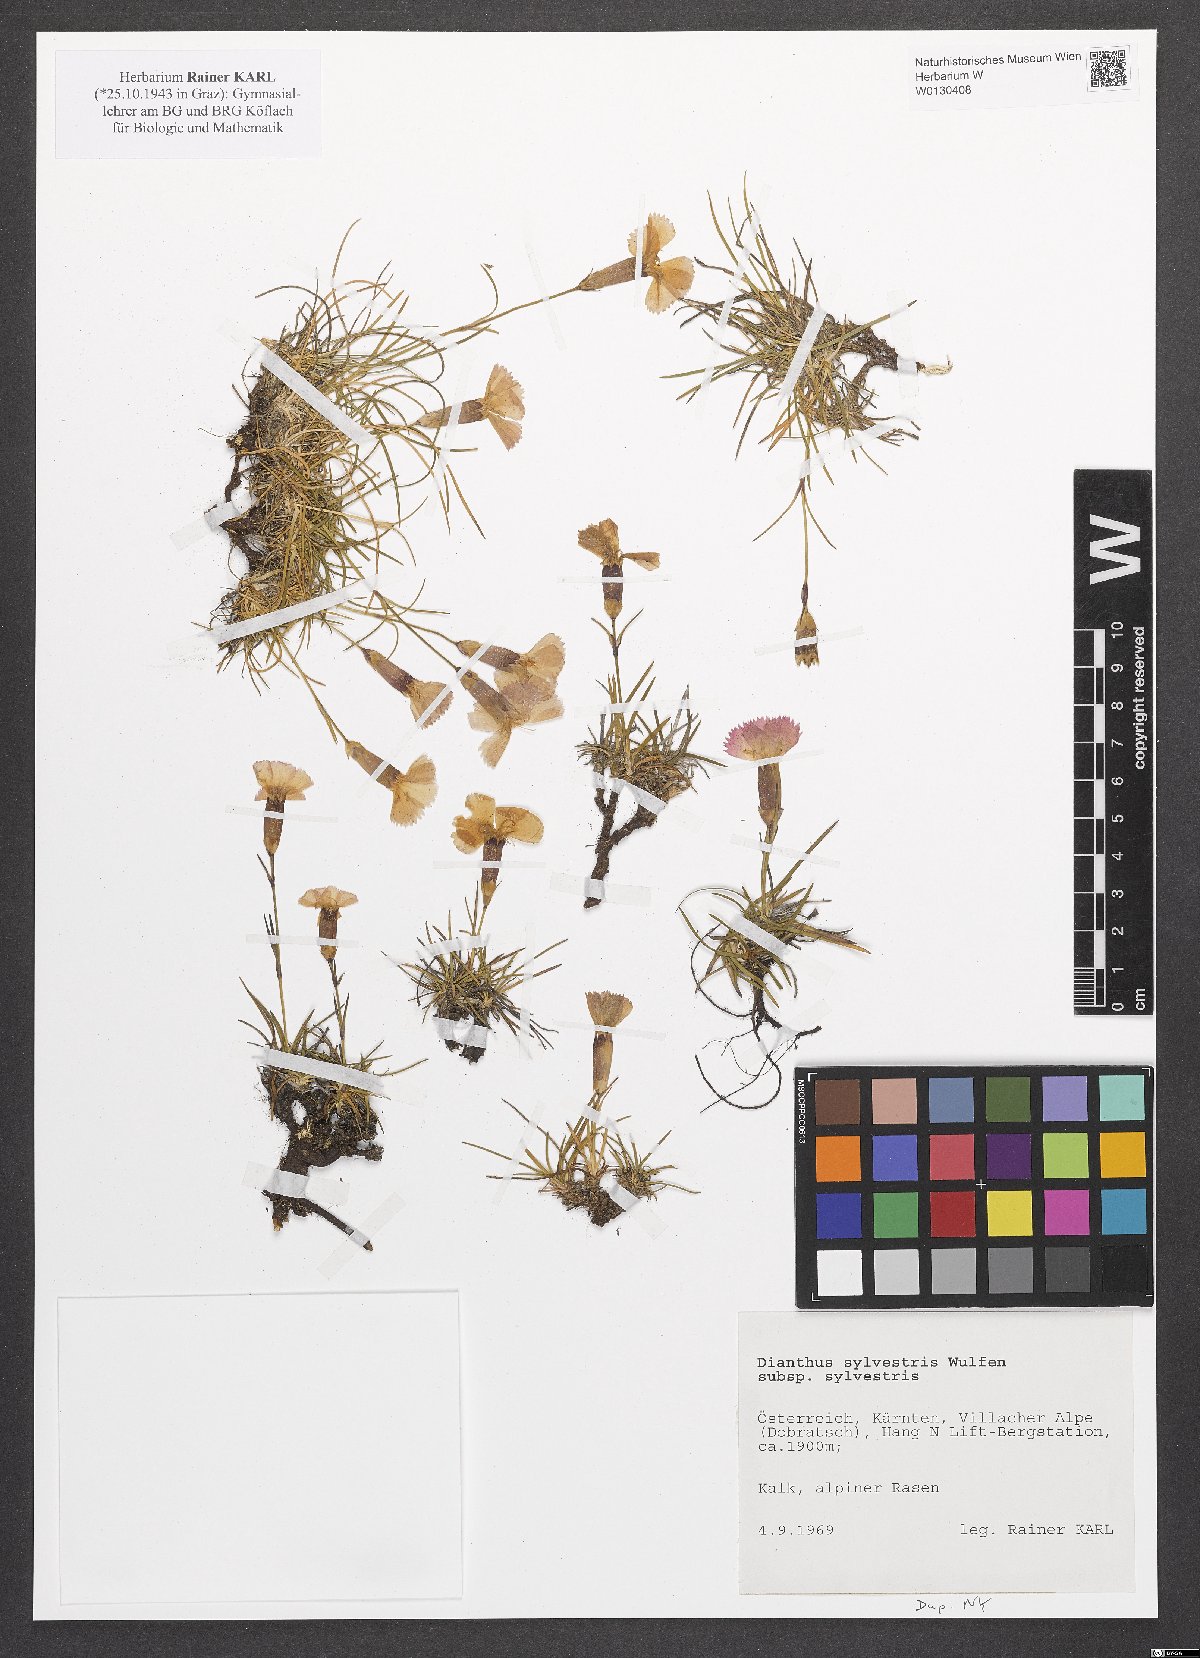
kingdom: Plantae
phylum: Tracheophyta
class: Magnoliopsida
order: Caryophyllales
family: Caryophyllaceae
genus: Dianthus
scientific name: Dianthus sylvestris
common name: Wood pink
